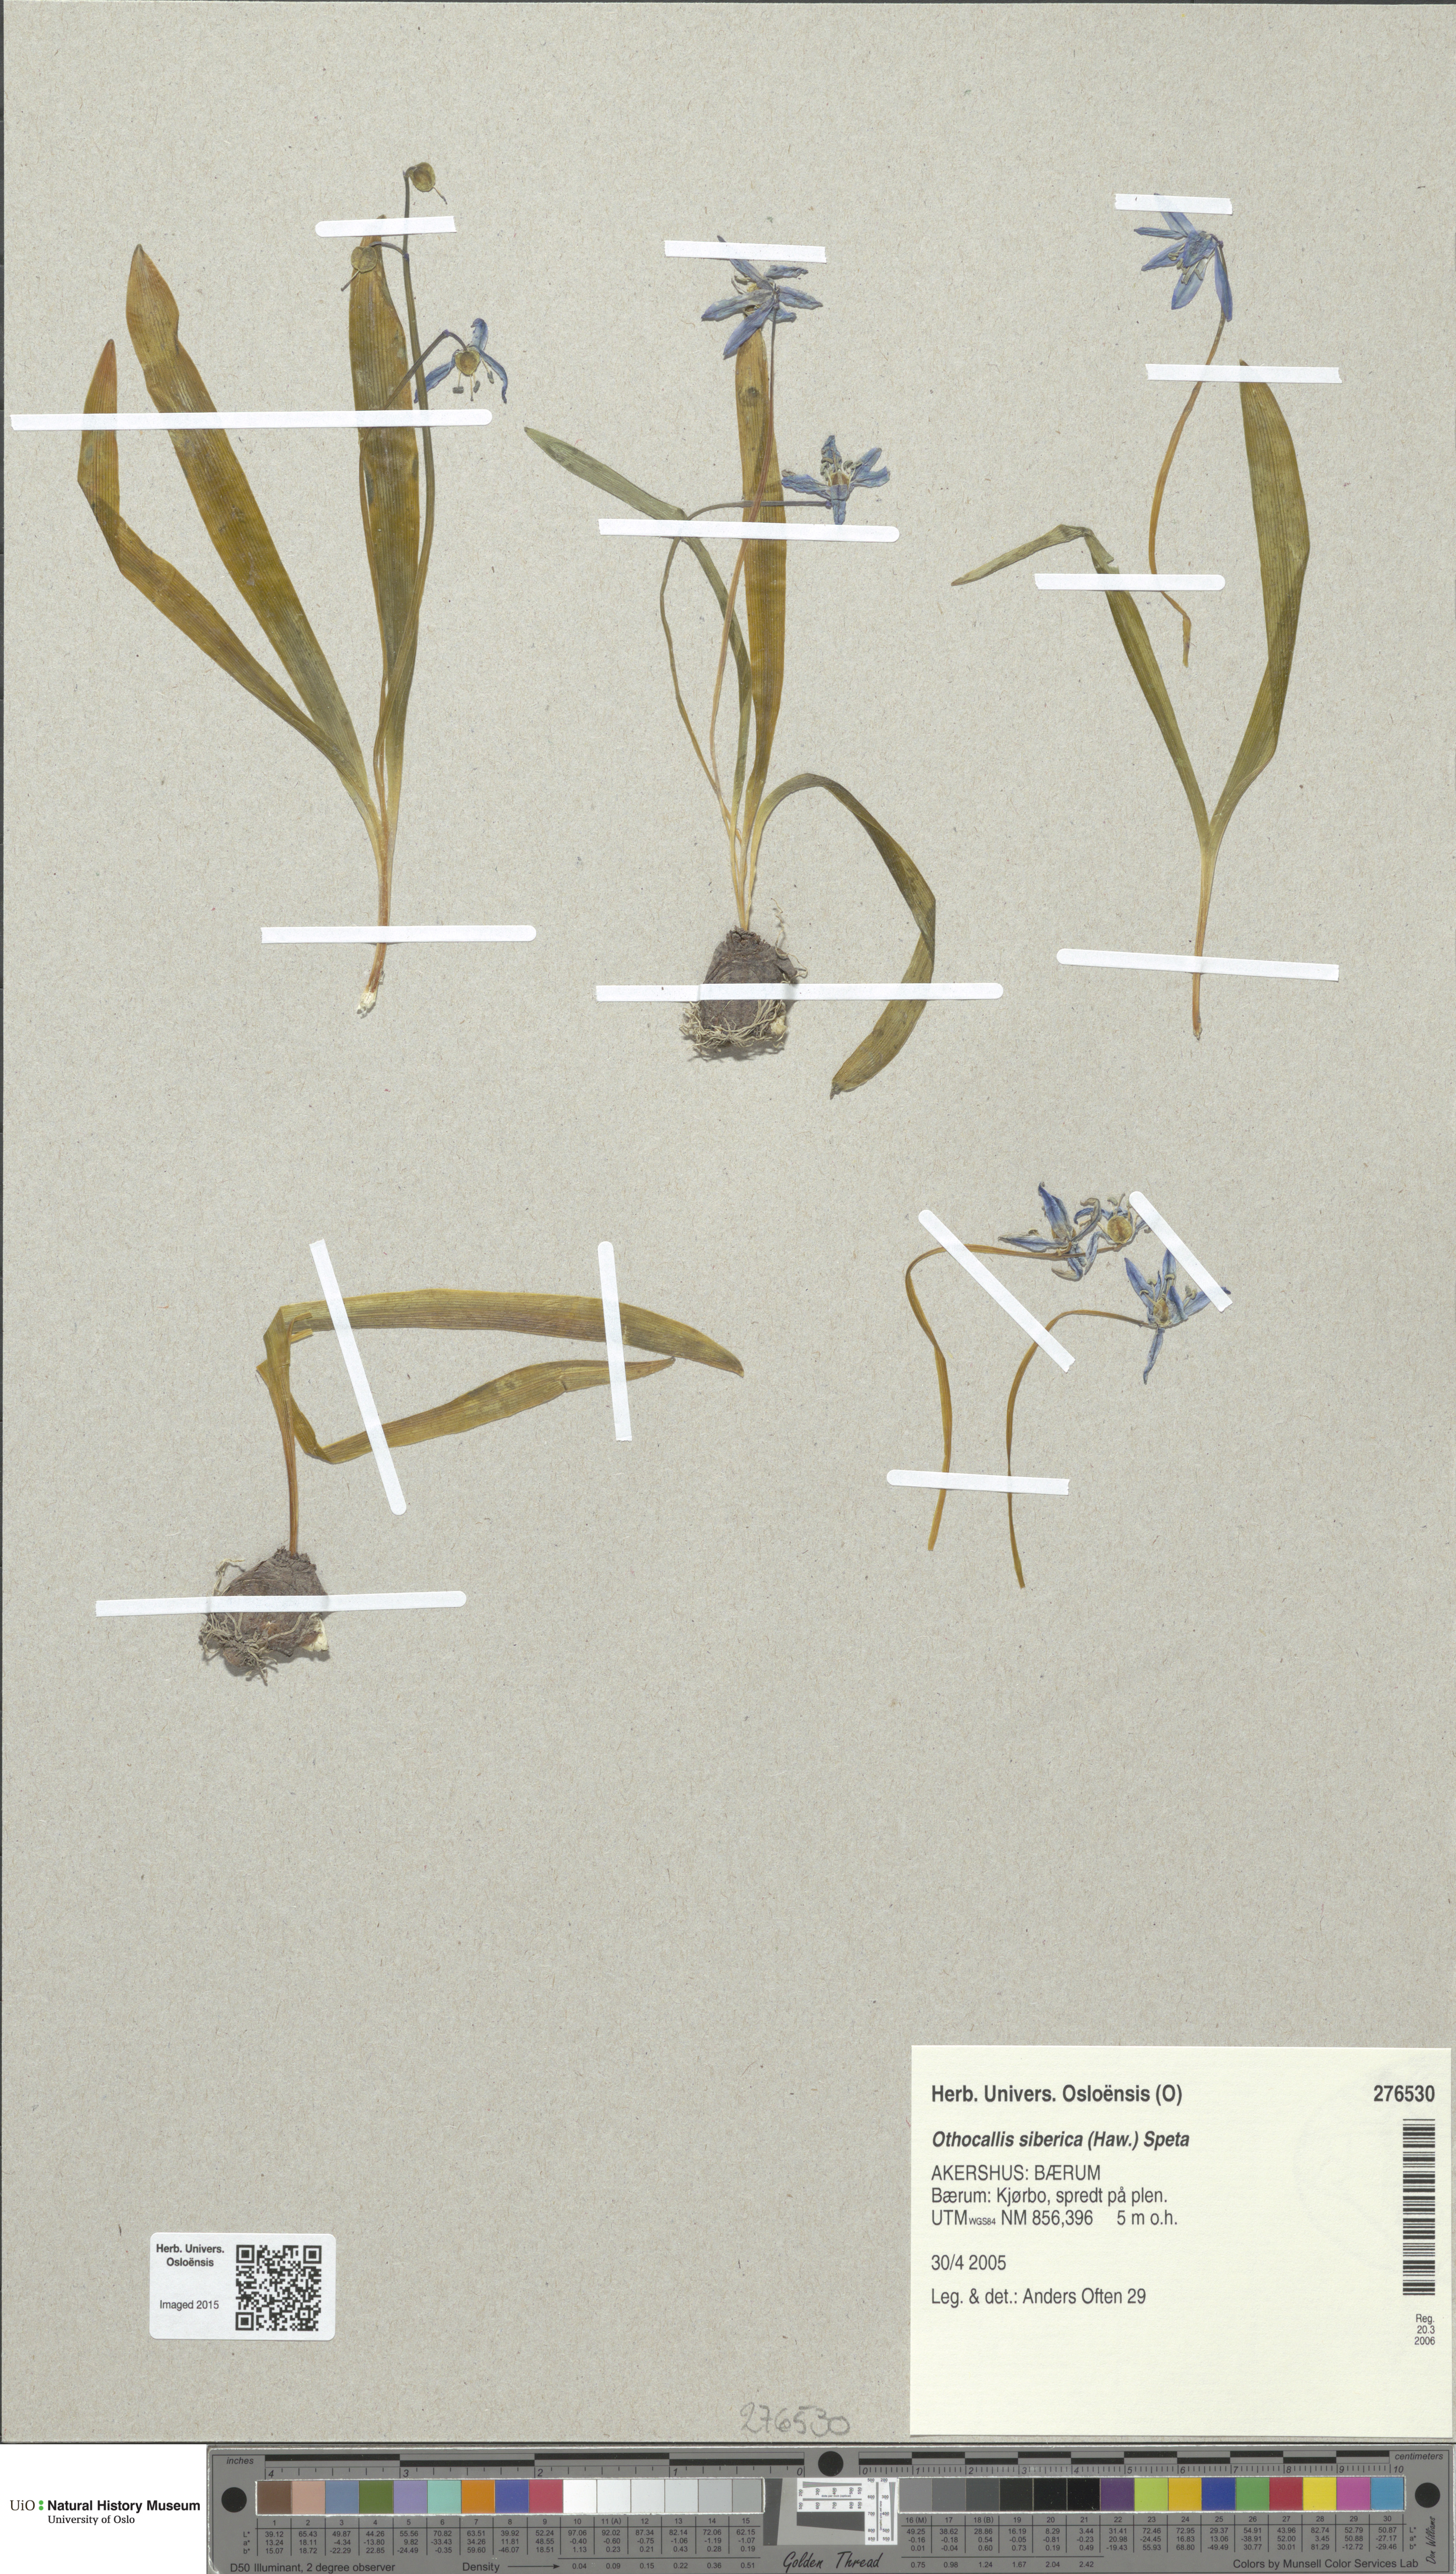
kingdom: Plantae
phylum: Tracheophyta
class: Liliopsida
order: Asparagales
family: Asparagaceae
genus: Scilla
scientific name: Scilla siberica
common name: Siberian squill
